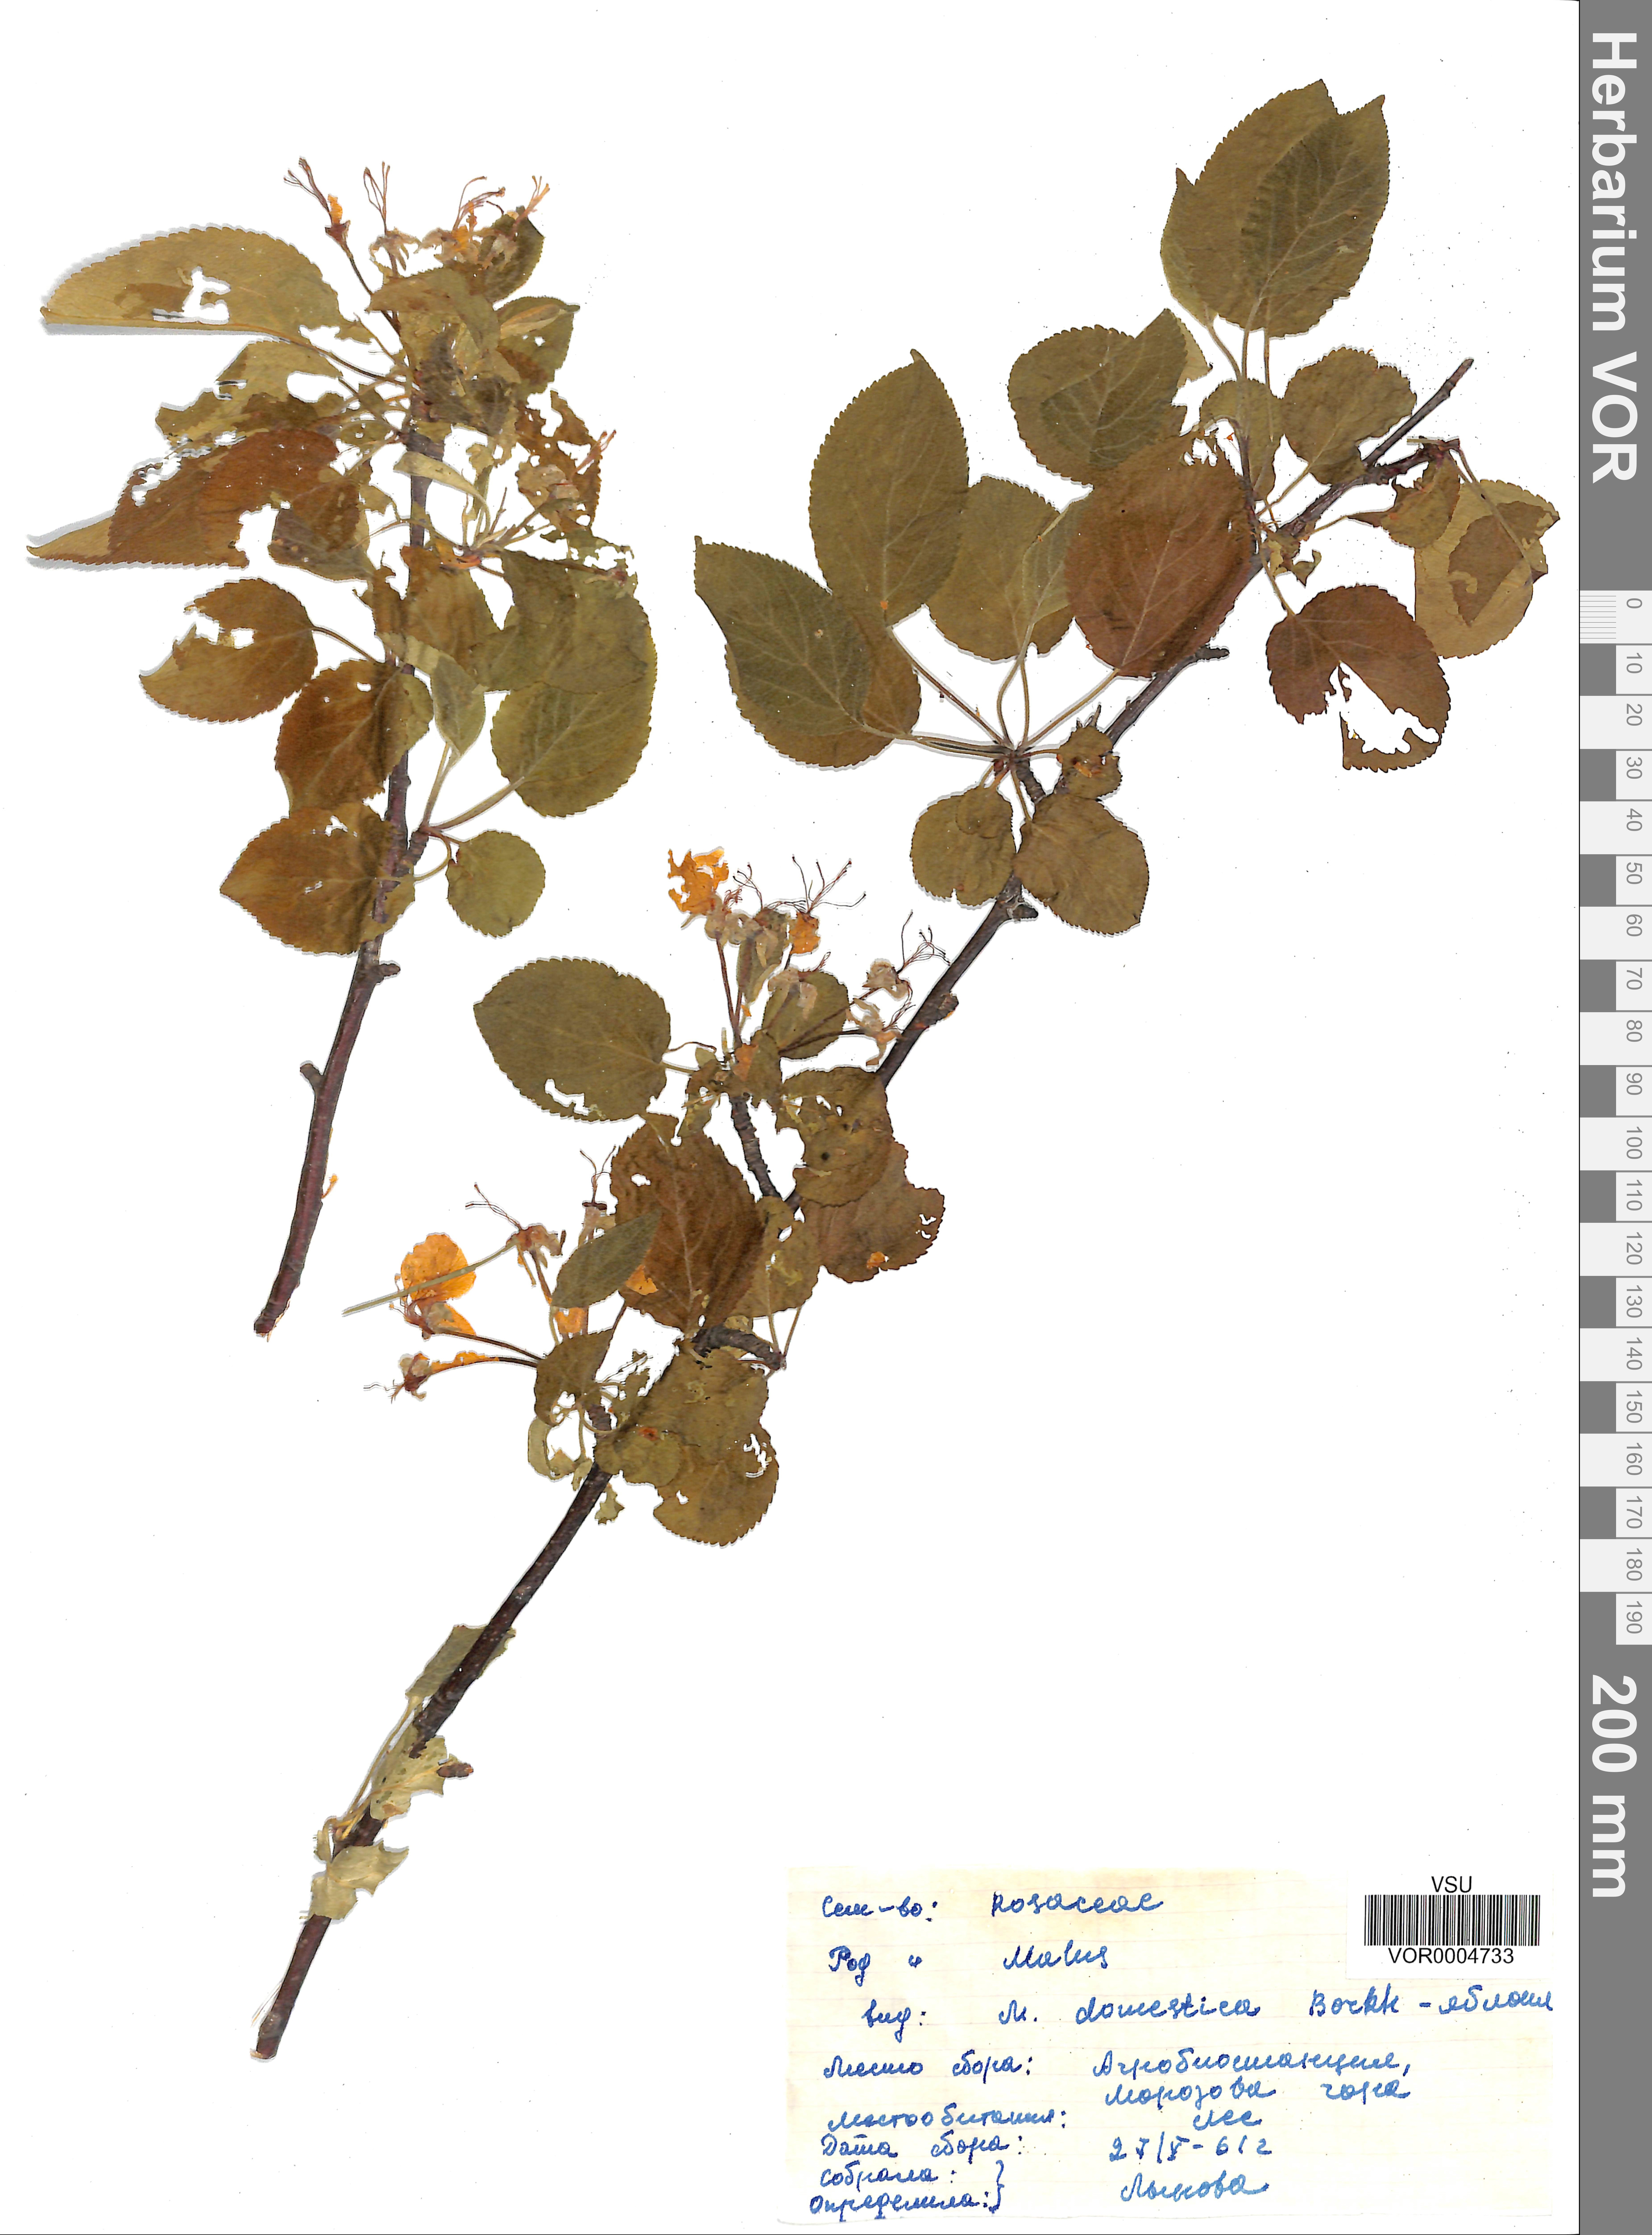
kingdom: Plantae
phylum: Tracheophyta
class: Magnoliopsida
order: Rosales
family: Rosaceae
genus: Malus
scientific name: Malus domestica
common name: Apple
